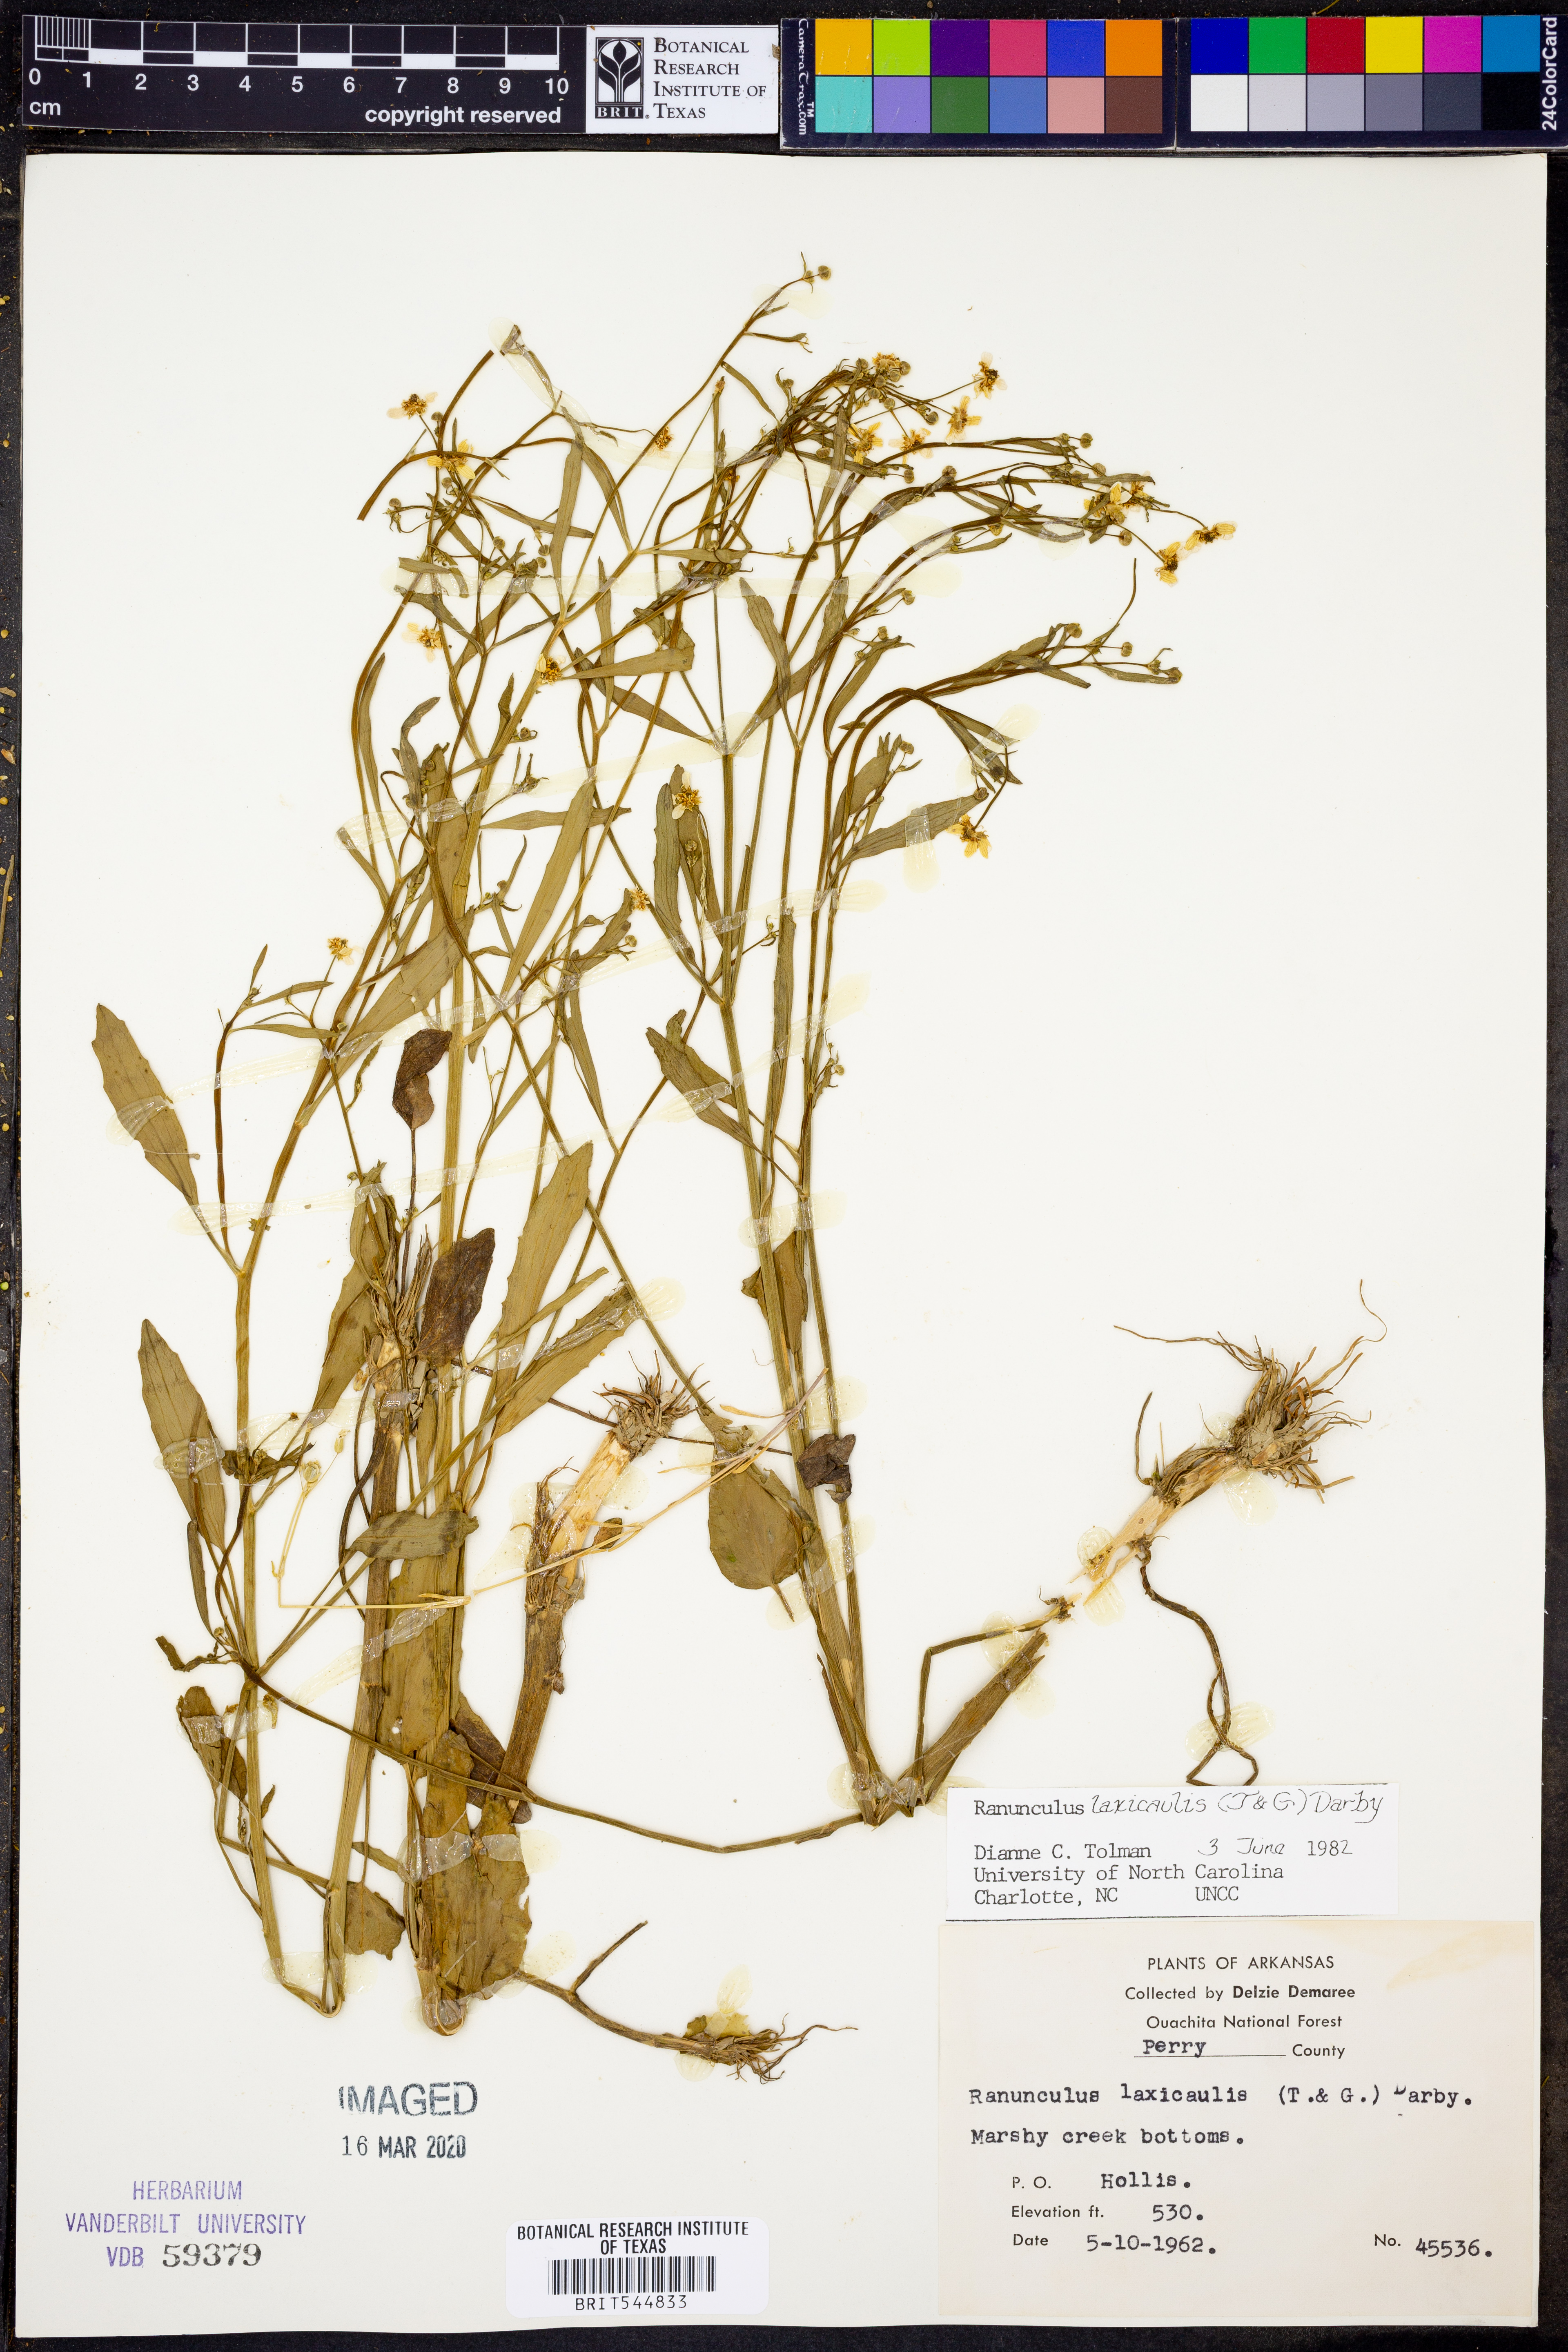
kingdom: Plantae
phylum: Tracheophyta
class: Magnoliopsida
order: Ranunculales
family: Ranunculaceae
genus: Ranunculus
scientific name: Ranunculus laxicaulis
